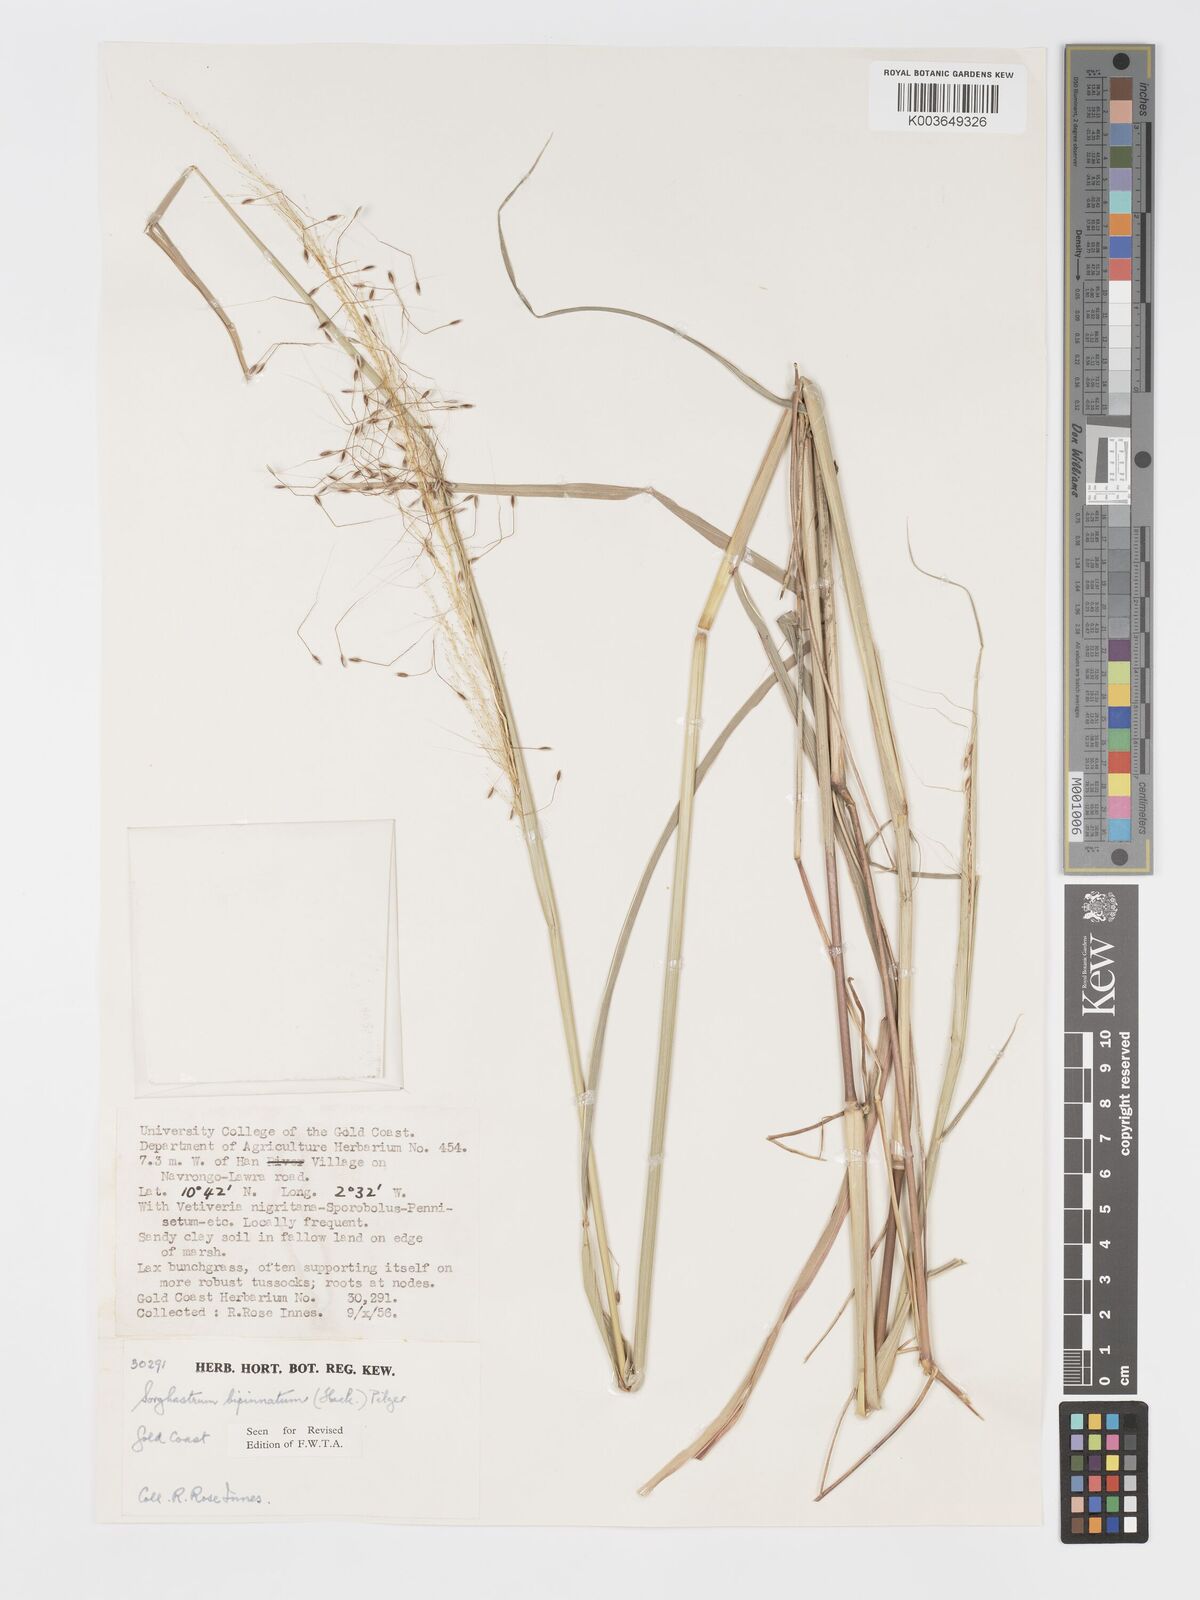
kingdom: Plantae
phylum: Tracheophyta
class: Liliopsida
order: Poales
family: Poaceae
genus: Sorghastrum
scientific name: Sorghastrum incompletum
